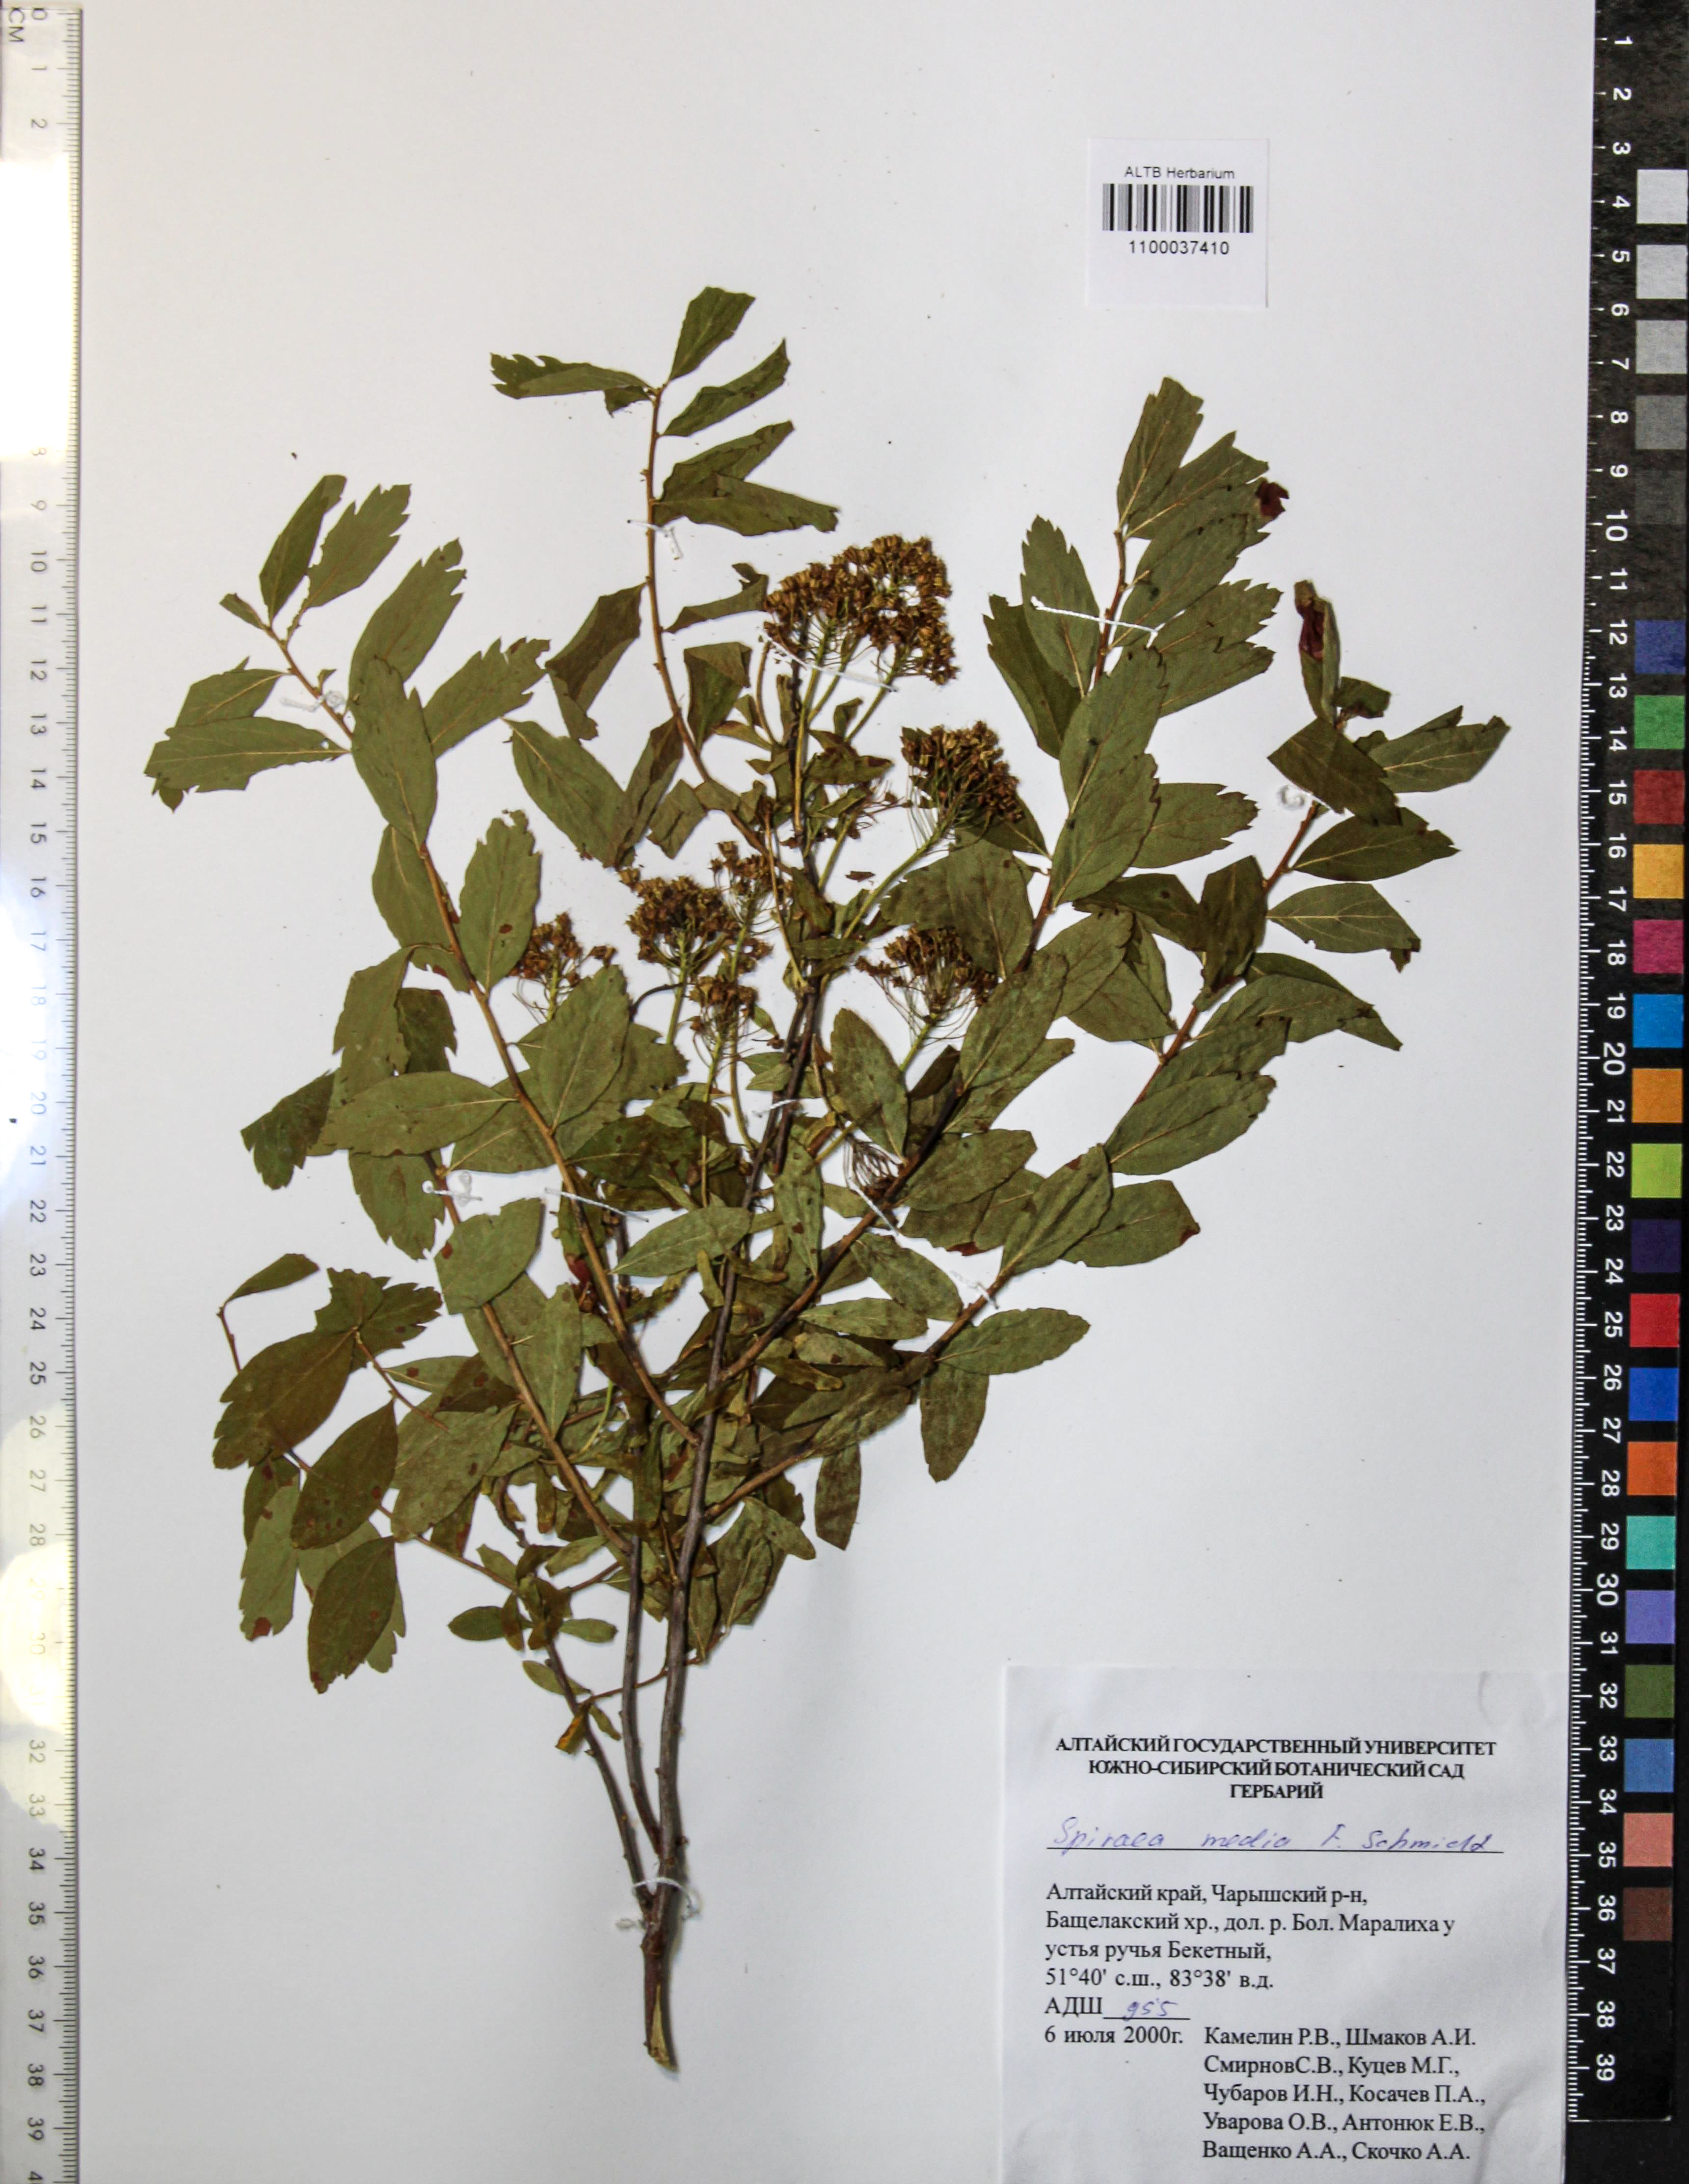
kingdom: Plantae
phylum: Tracheophyta
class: Magnoliopsida
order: Rosales
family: Rosaceae
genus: Spiraea
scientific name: Spiraea media
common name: Russian spiraea
